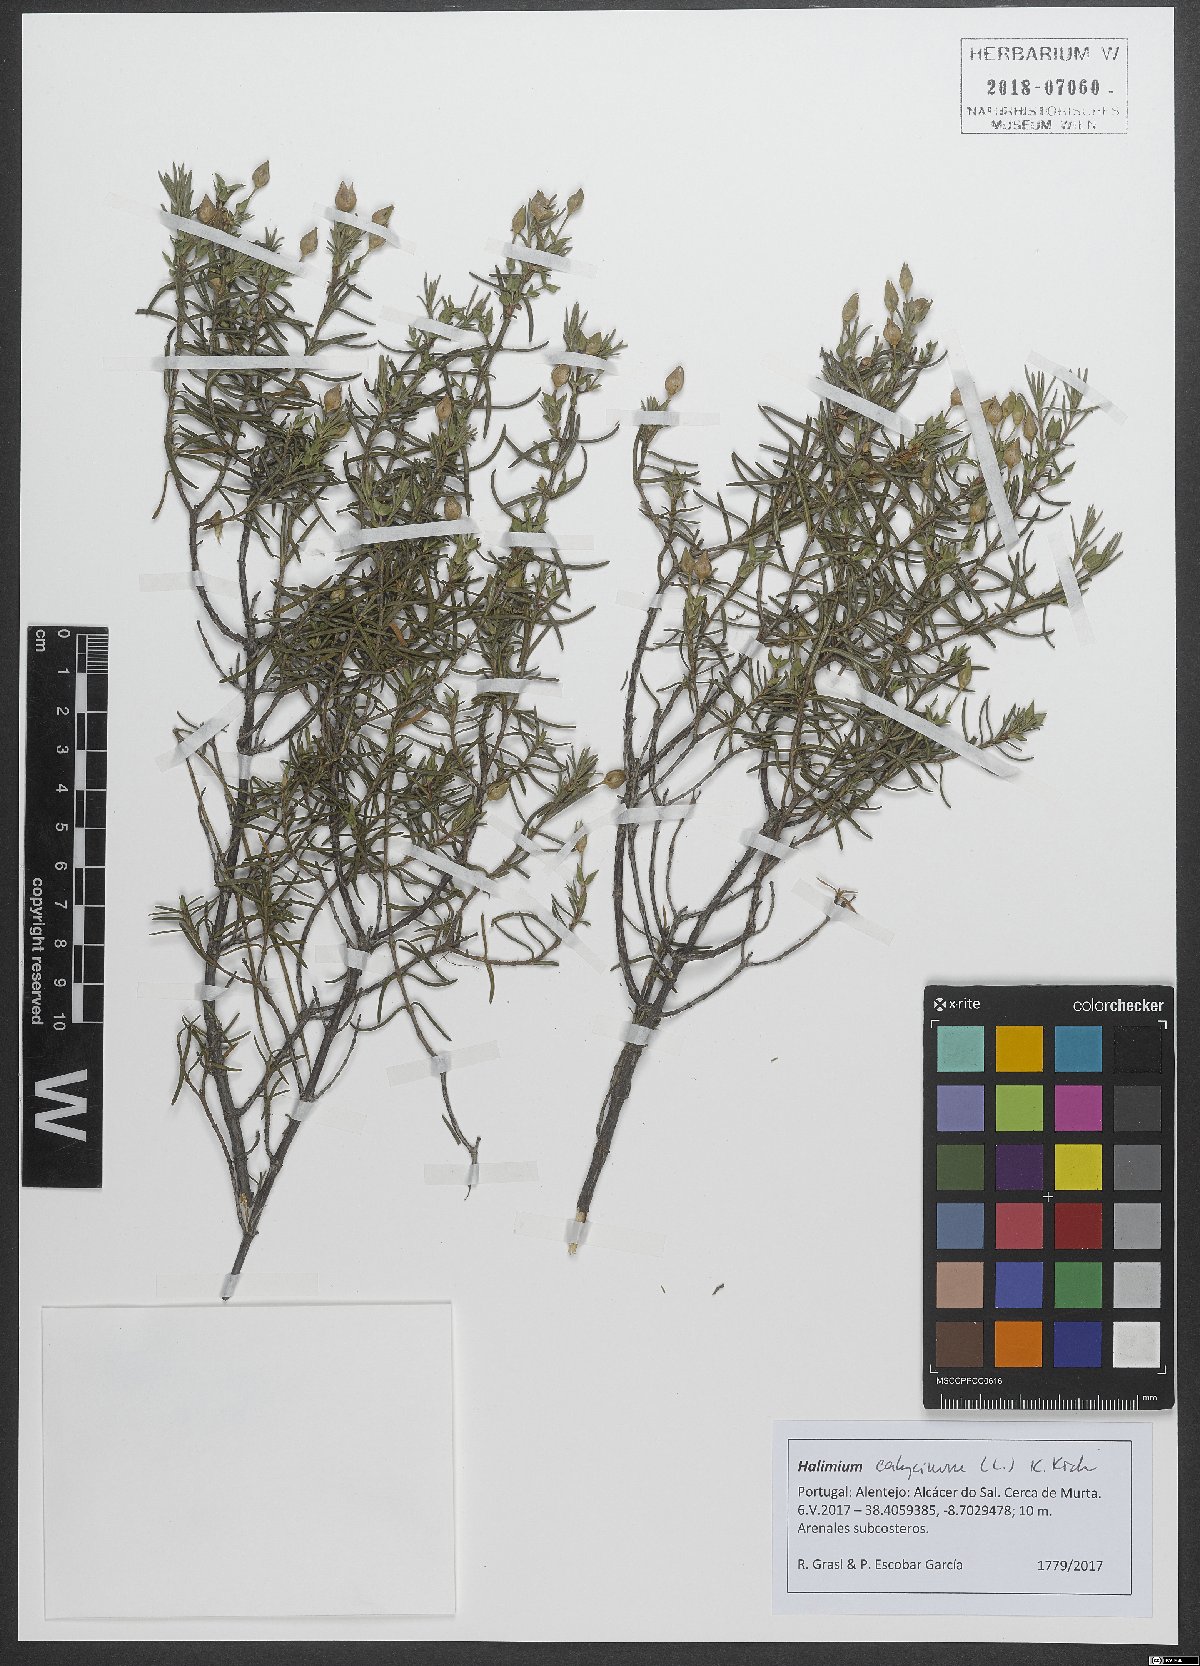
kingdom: Plantae
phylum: Tracheophyta
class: Magnoliopsida
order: Malvales
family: Cistaceae
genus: Halimium
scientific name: Halimium calycinum
